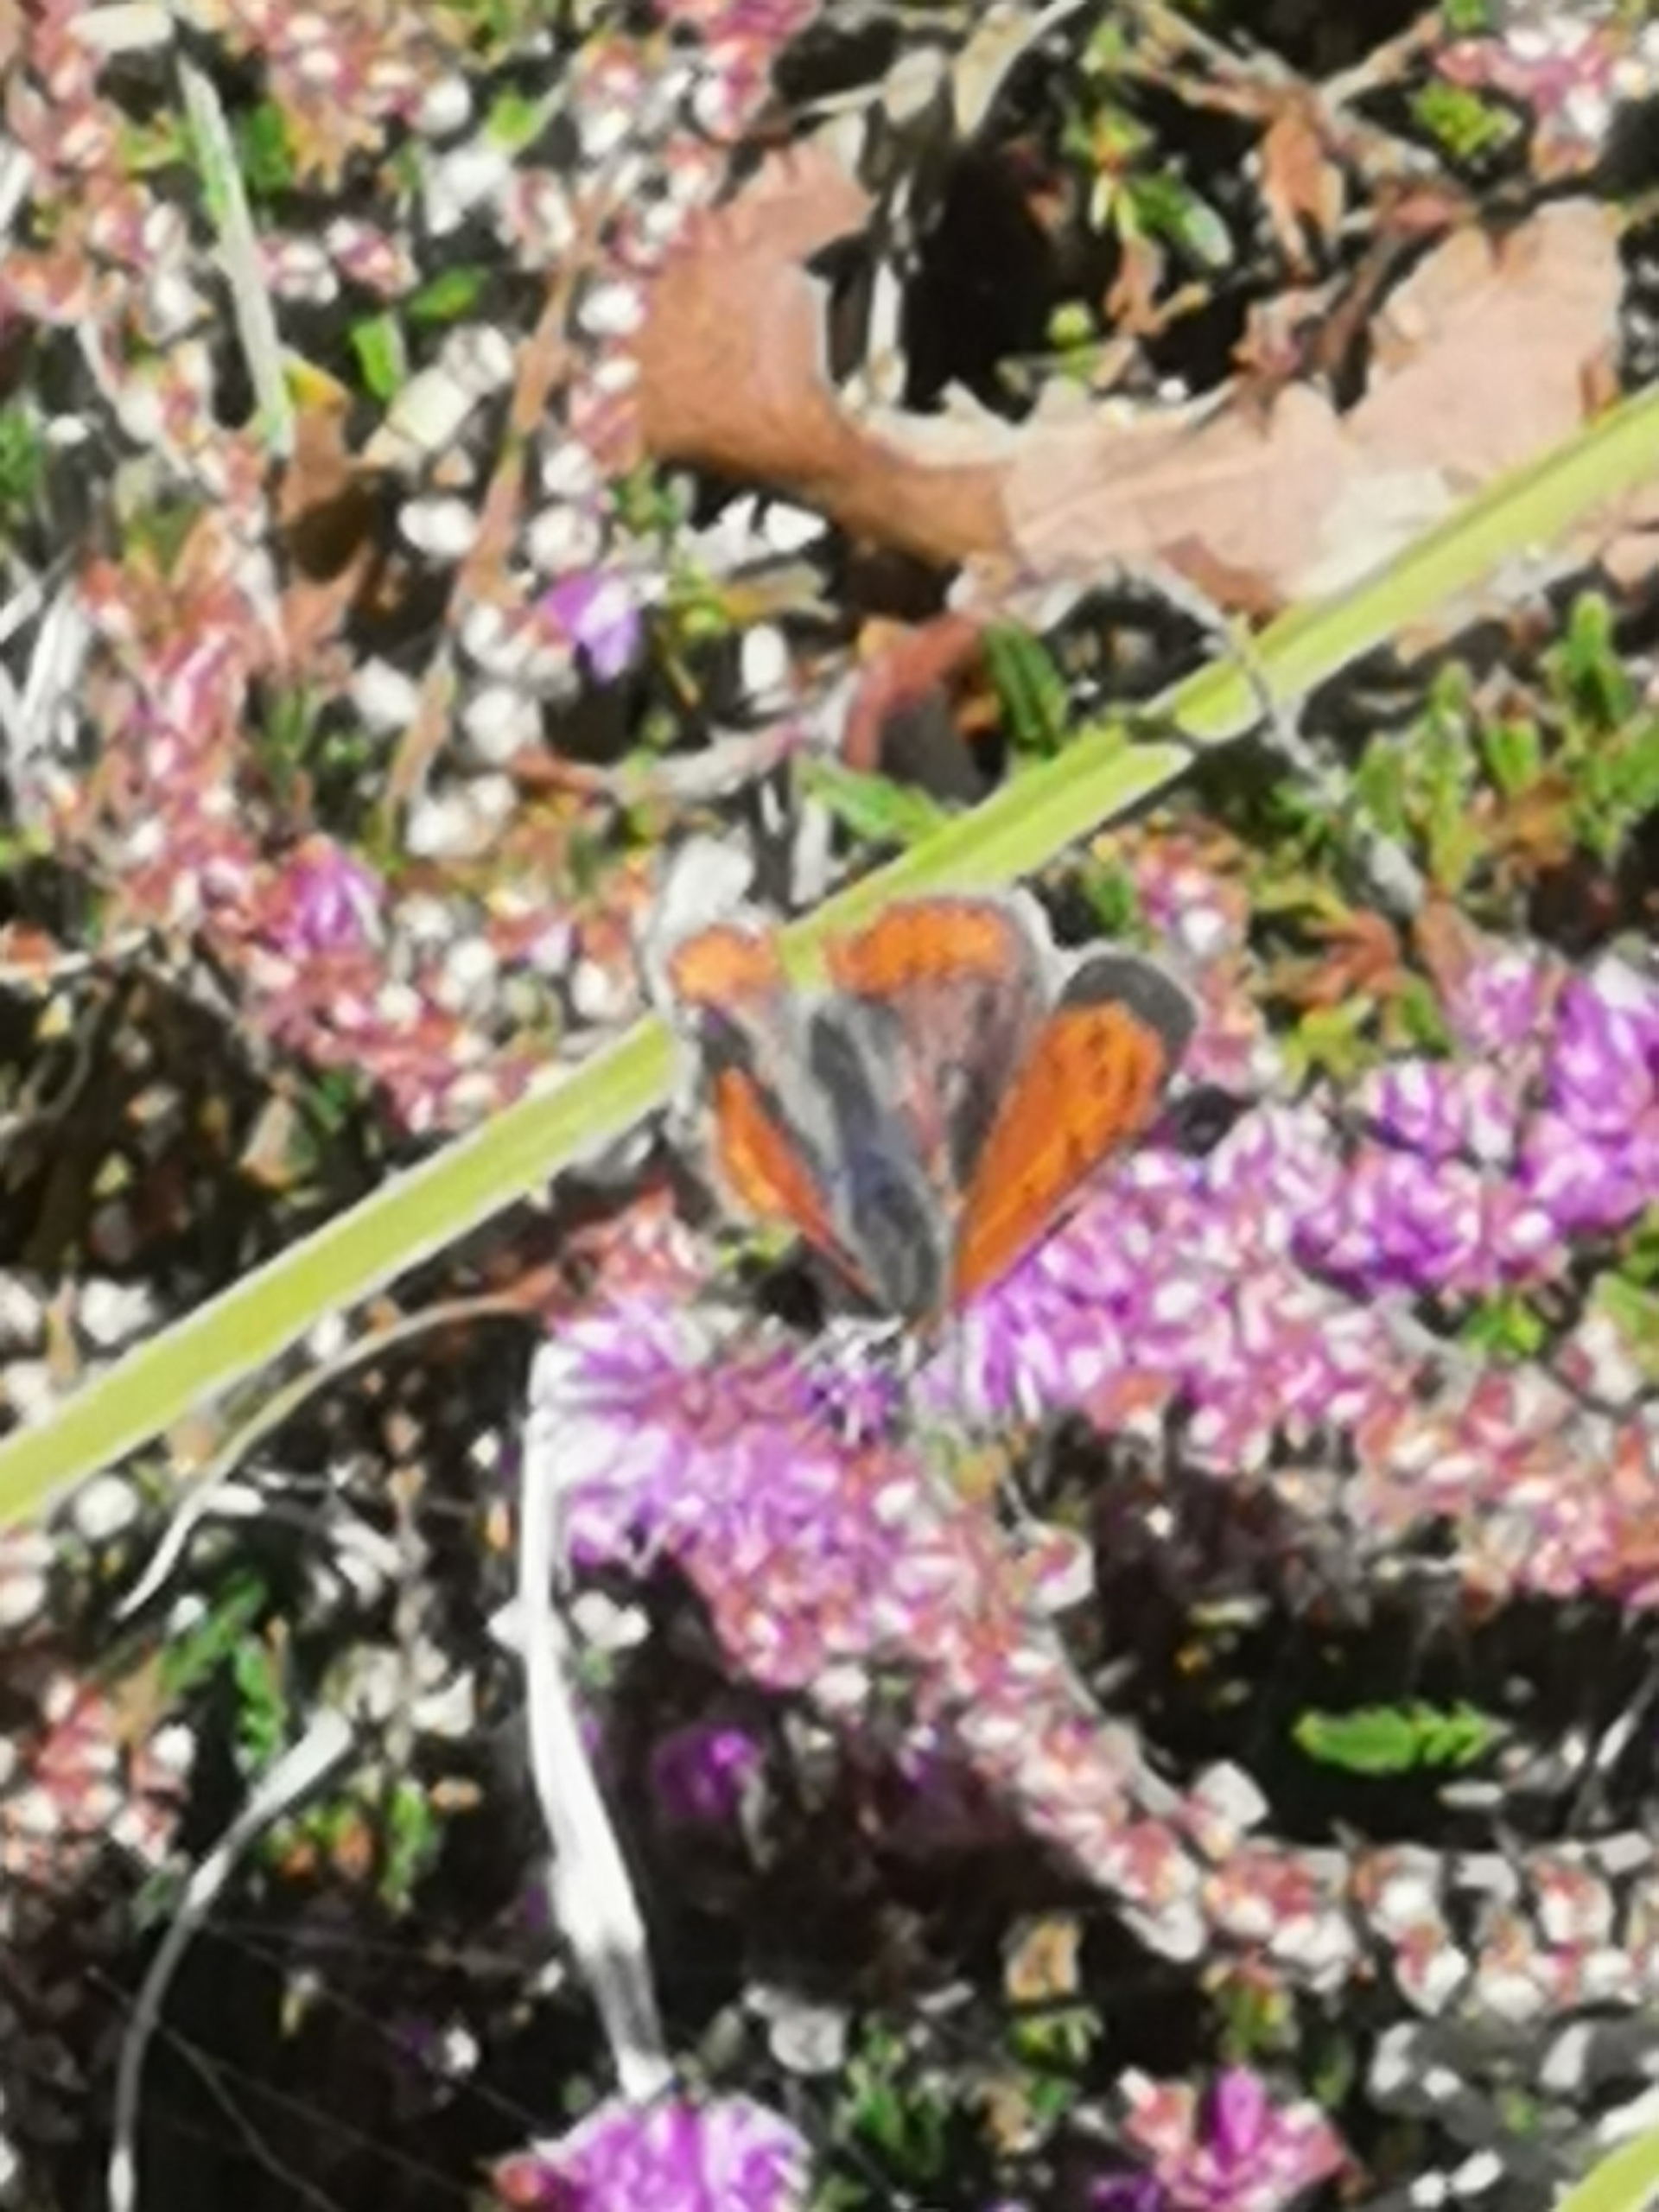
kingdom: Animalia
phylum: Arthropoda
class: Insecta
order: Lepidoptera
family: Lycaenidae
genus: Lycaena
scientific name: Lycaena phlaeas
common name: Lille ildfugl
